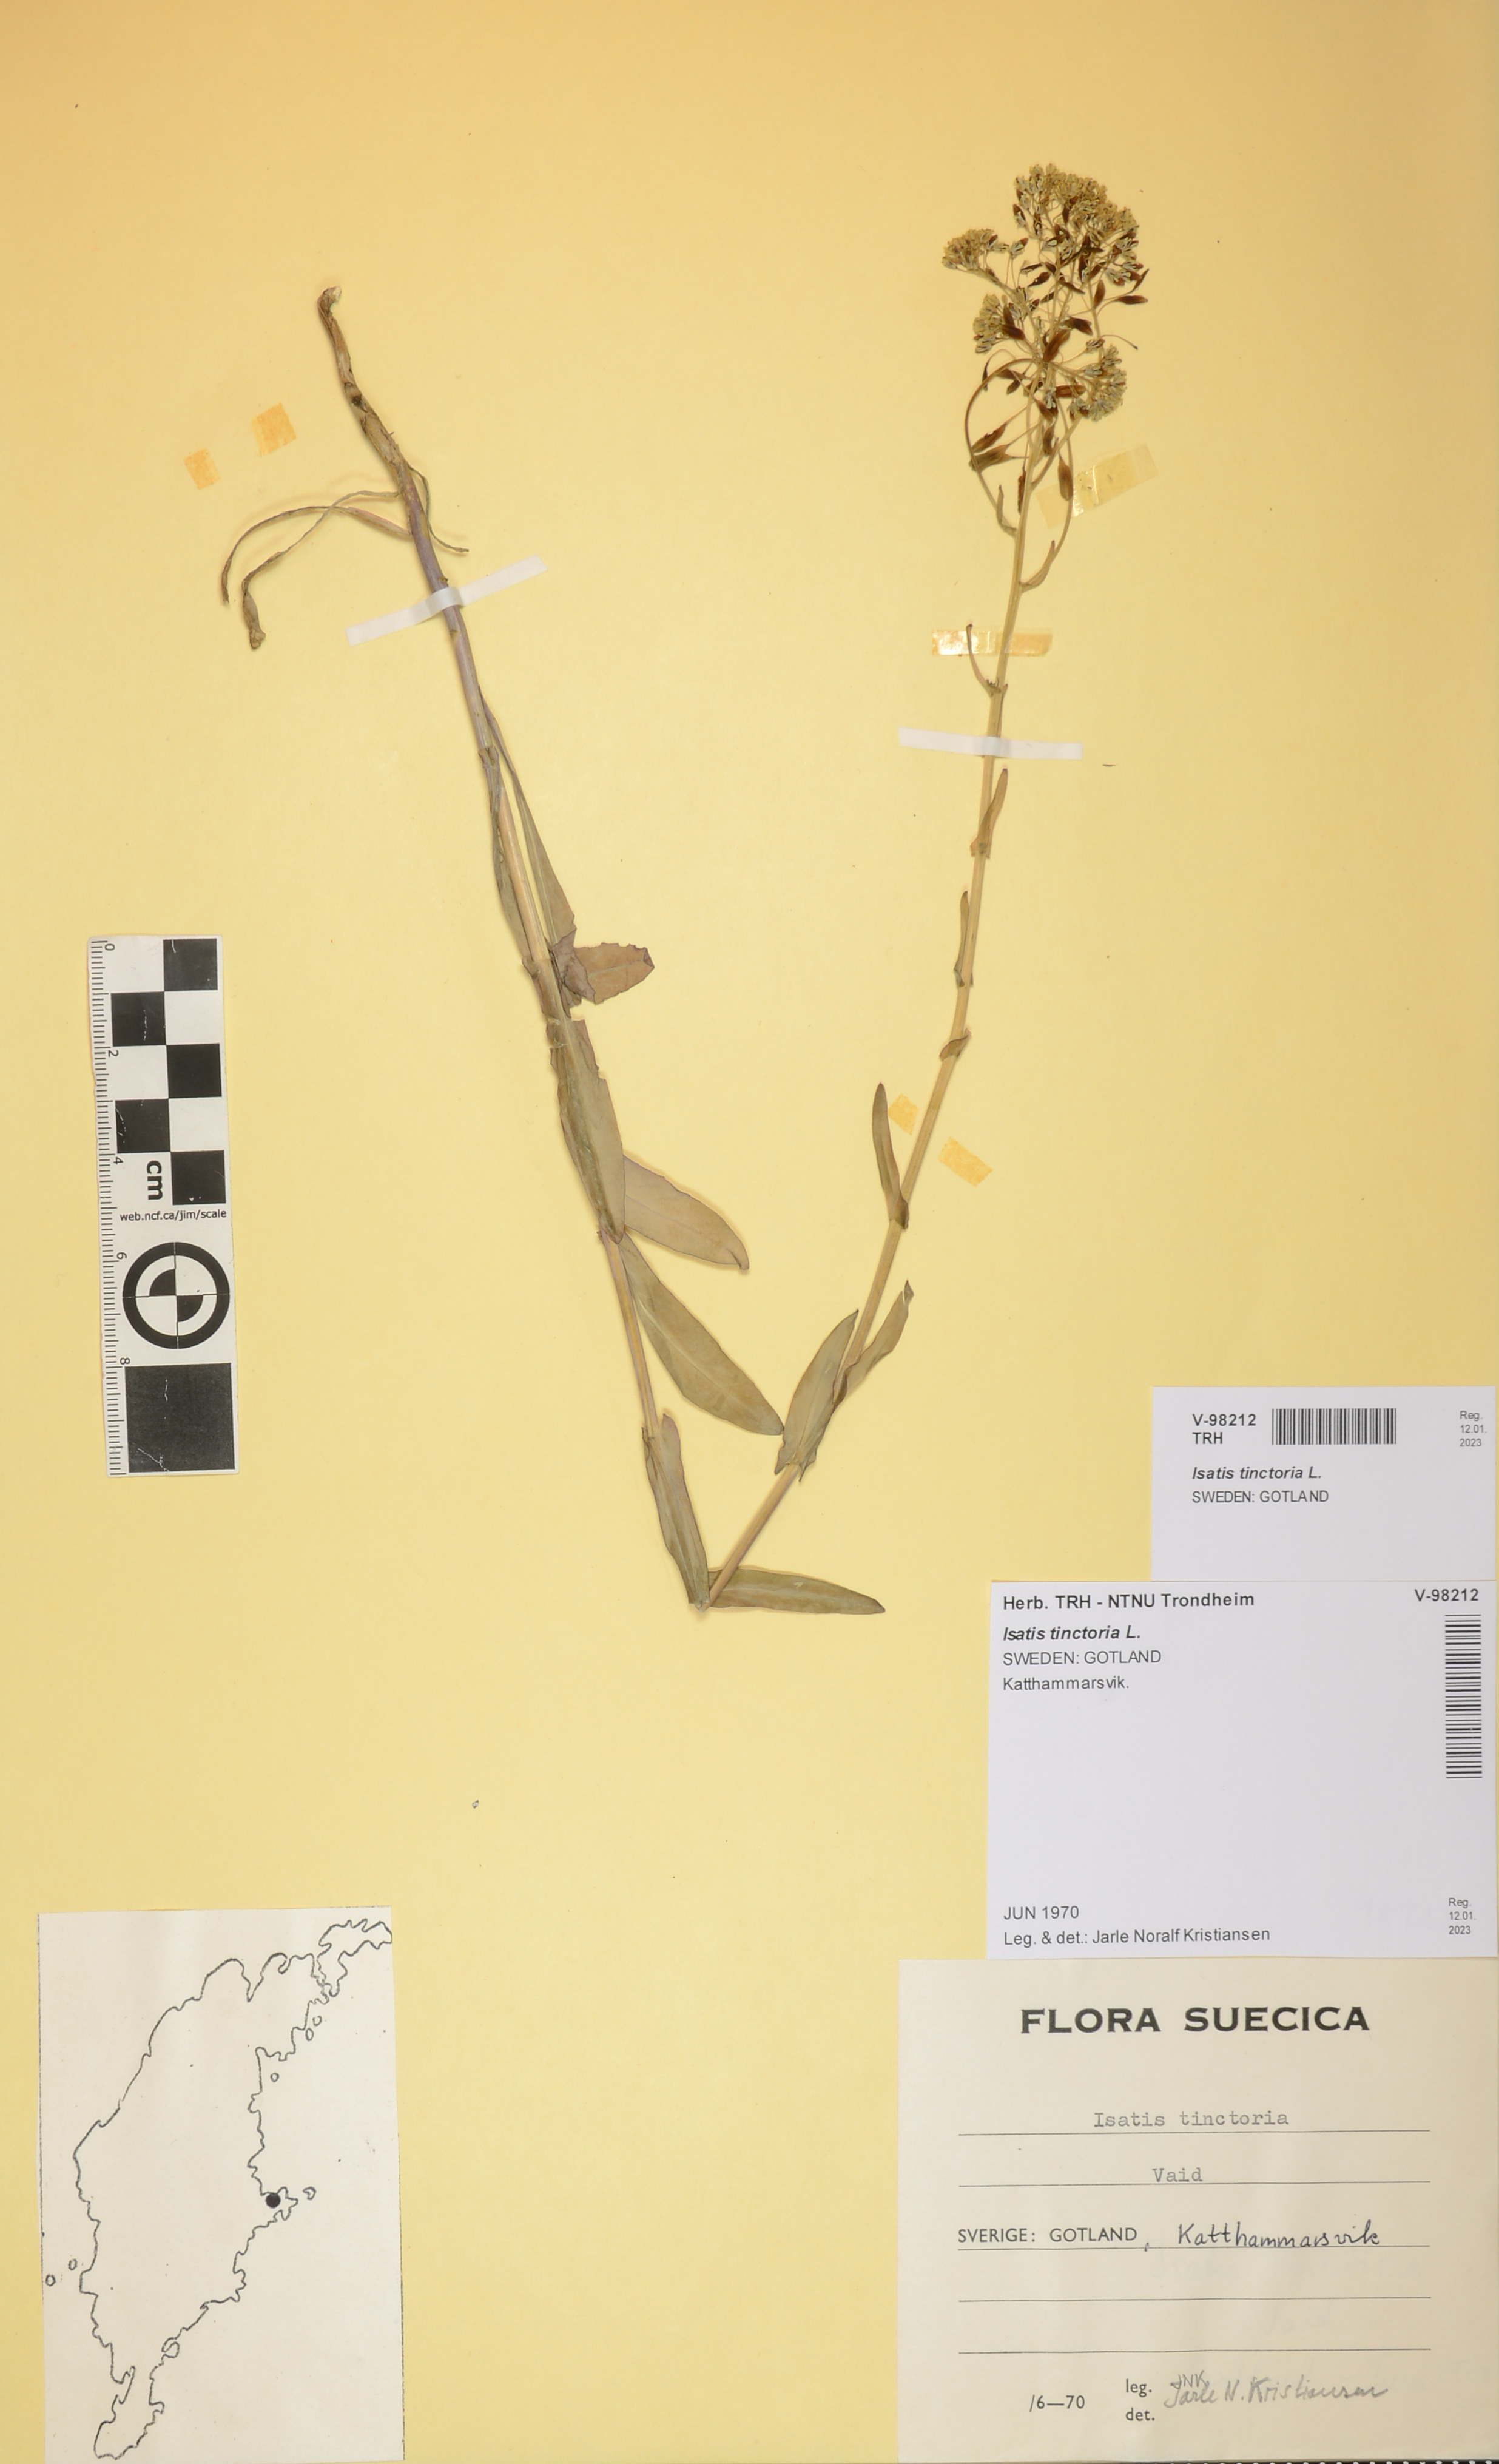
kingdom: Plantae
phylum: Tracheophyta
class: Magnoliopsida
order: Brassicales
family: Brassicaceae
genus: Isatis
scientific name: Isatis tinctoria
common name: Woad
